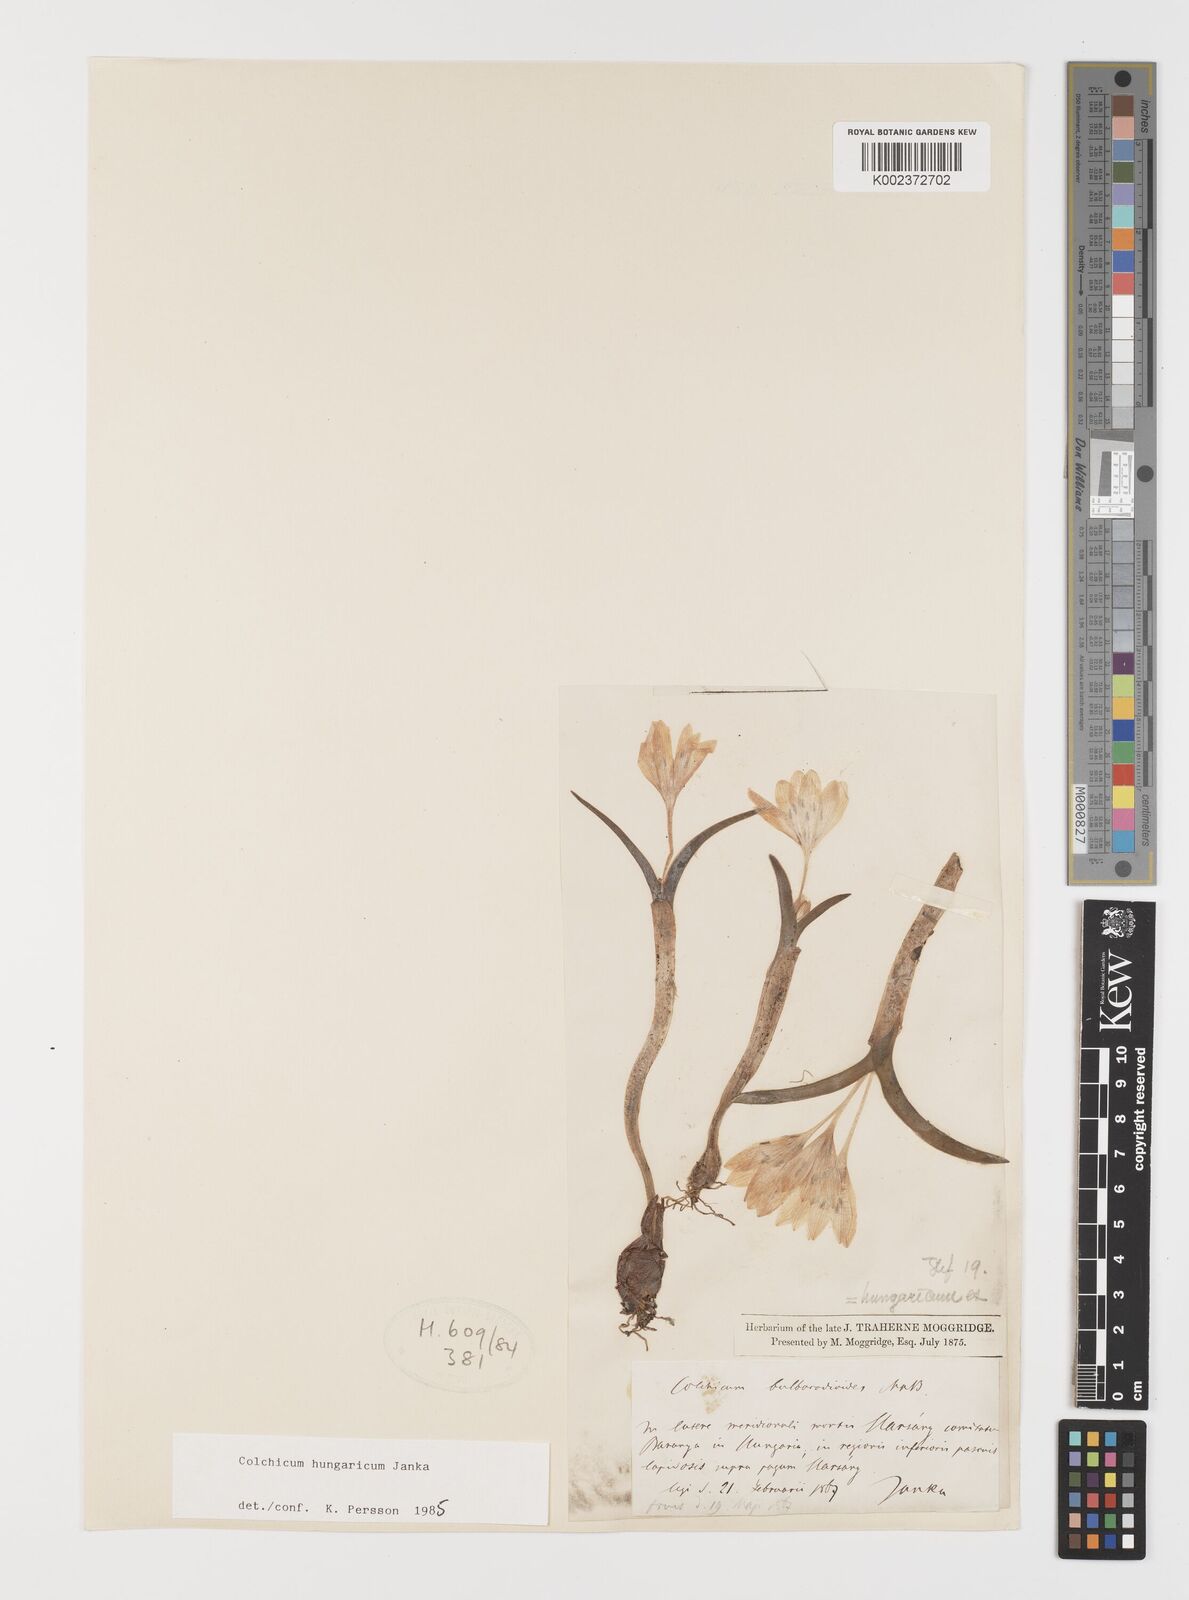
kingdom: Plantae
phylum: Tracheophyta
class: Liliopsida
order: Liliales
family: Colchicaceae
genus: Colchicum
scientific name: Colchicum hungaricum
